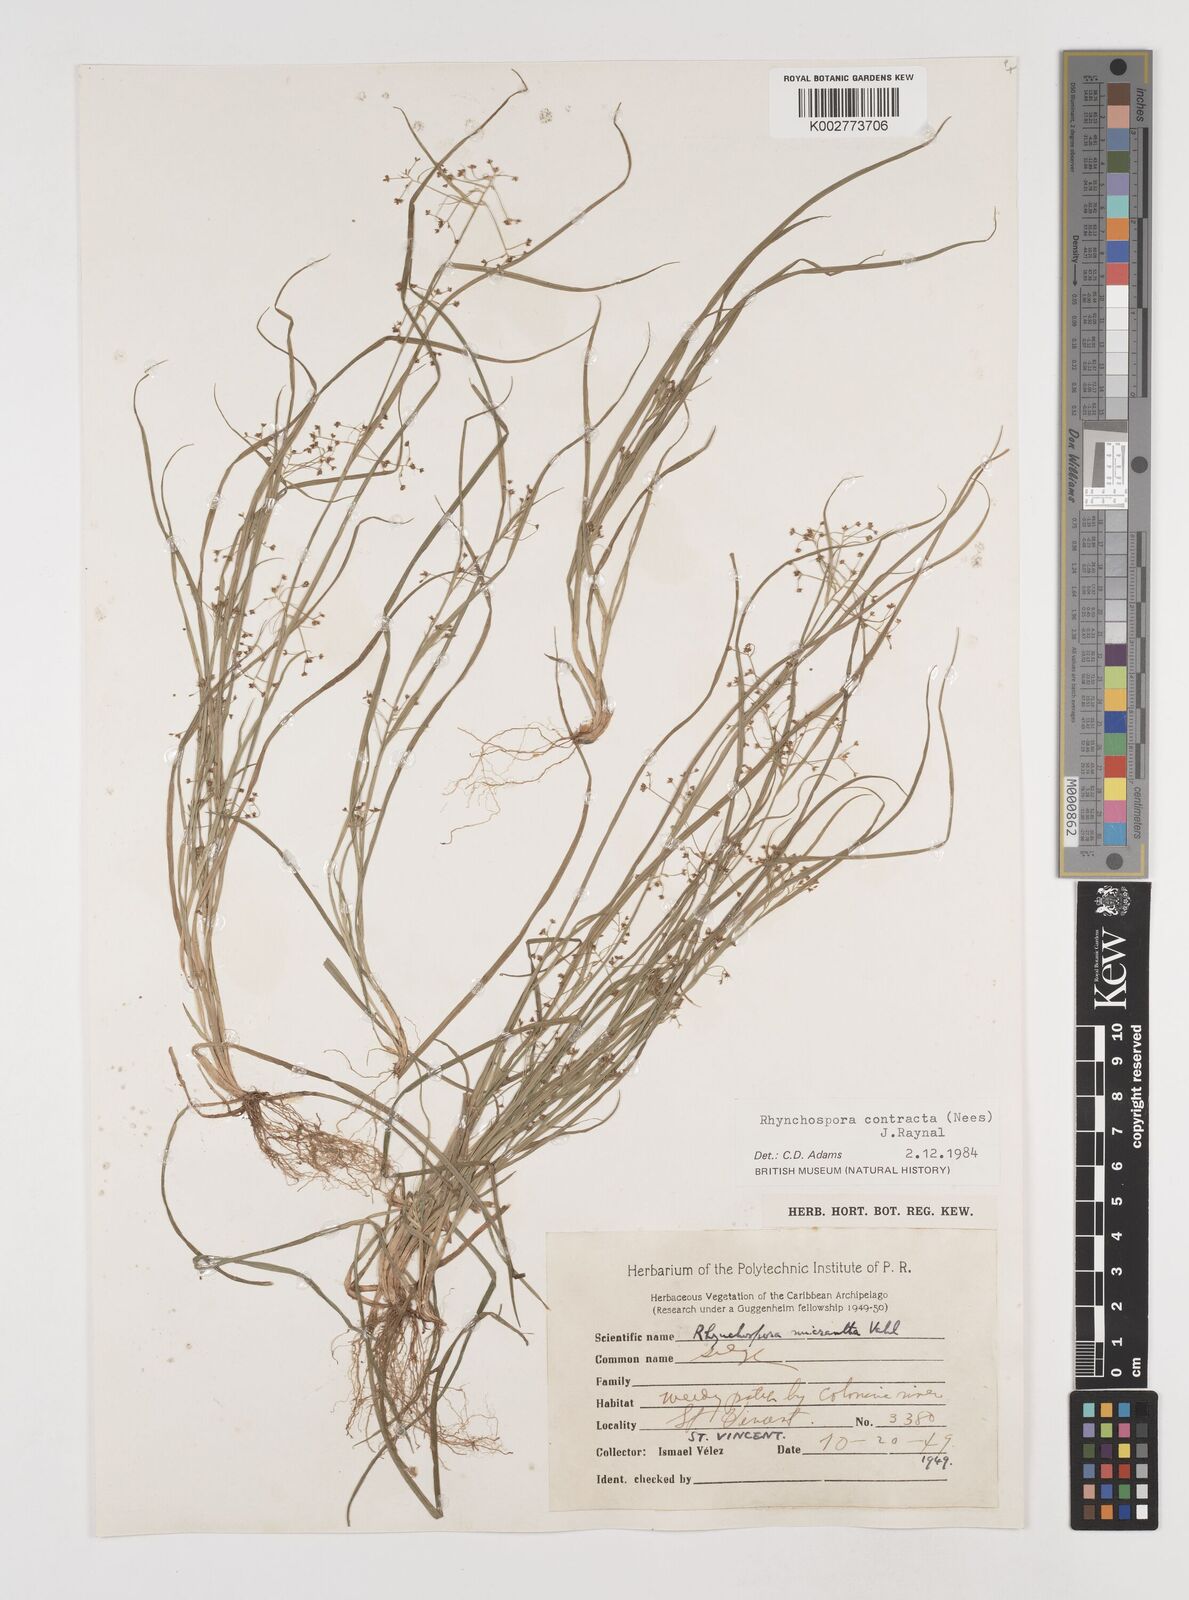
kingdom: Plantae
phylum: Tracheophyta
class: Liliopsida
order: Poales
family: Cyperaceae
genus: Rhynchospora
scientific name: Rhynchospora contracta
